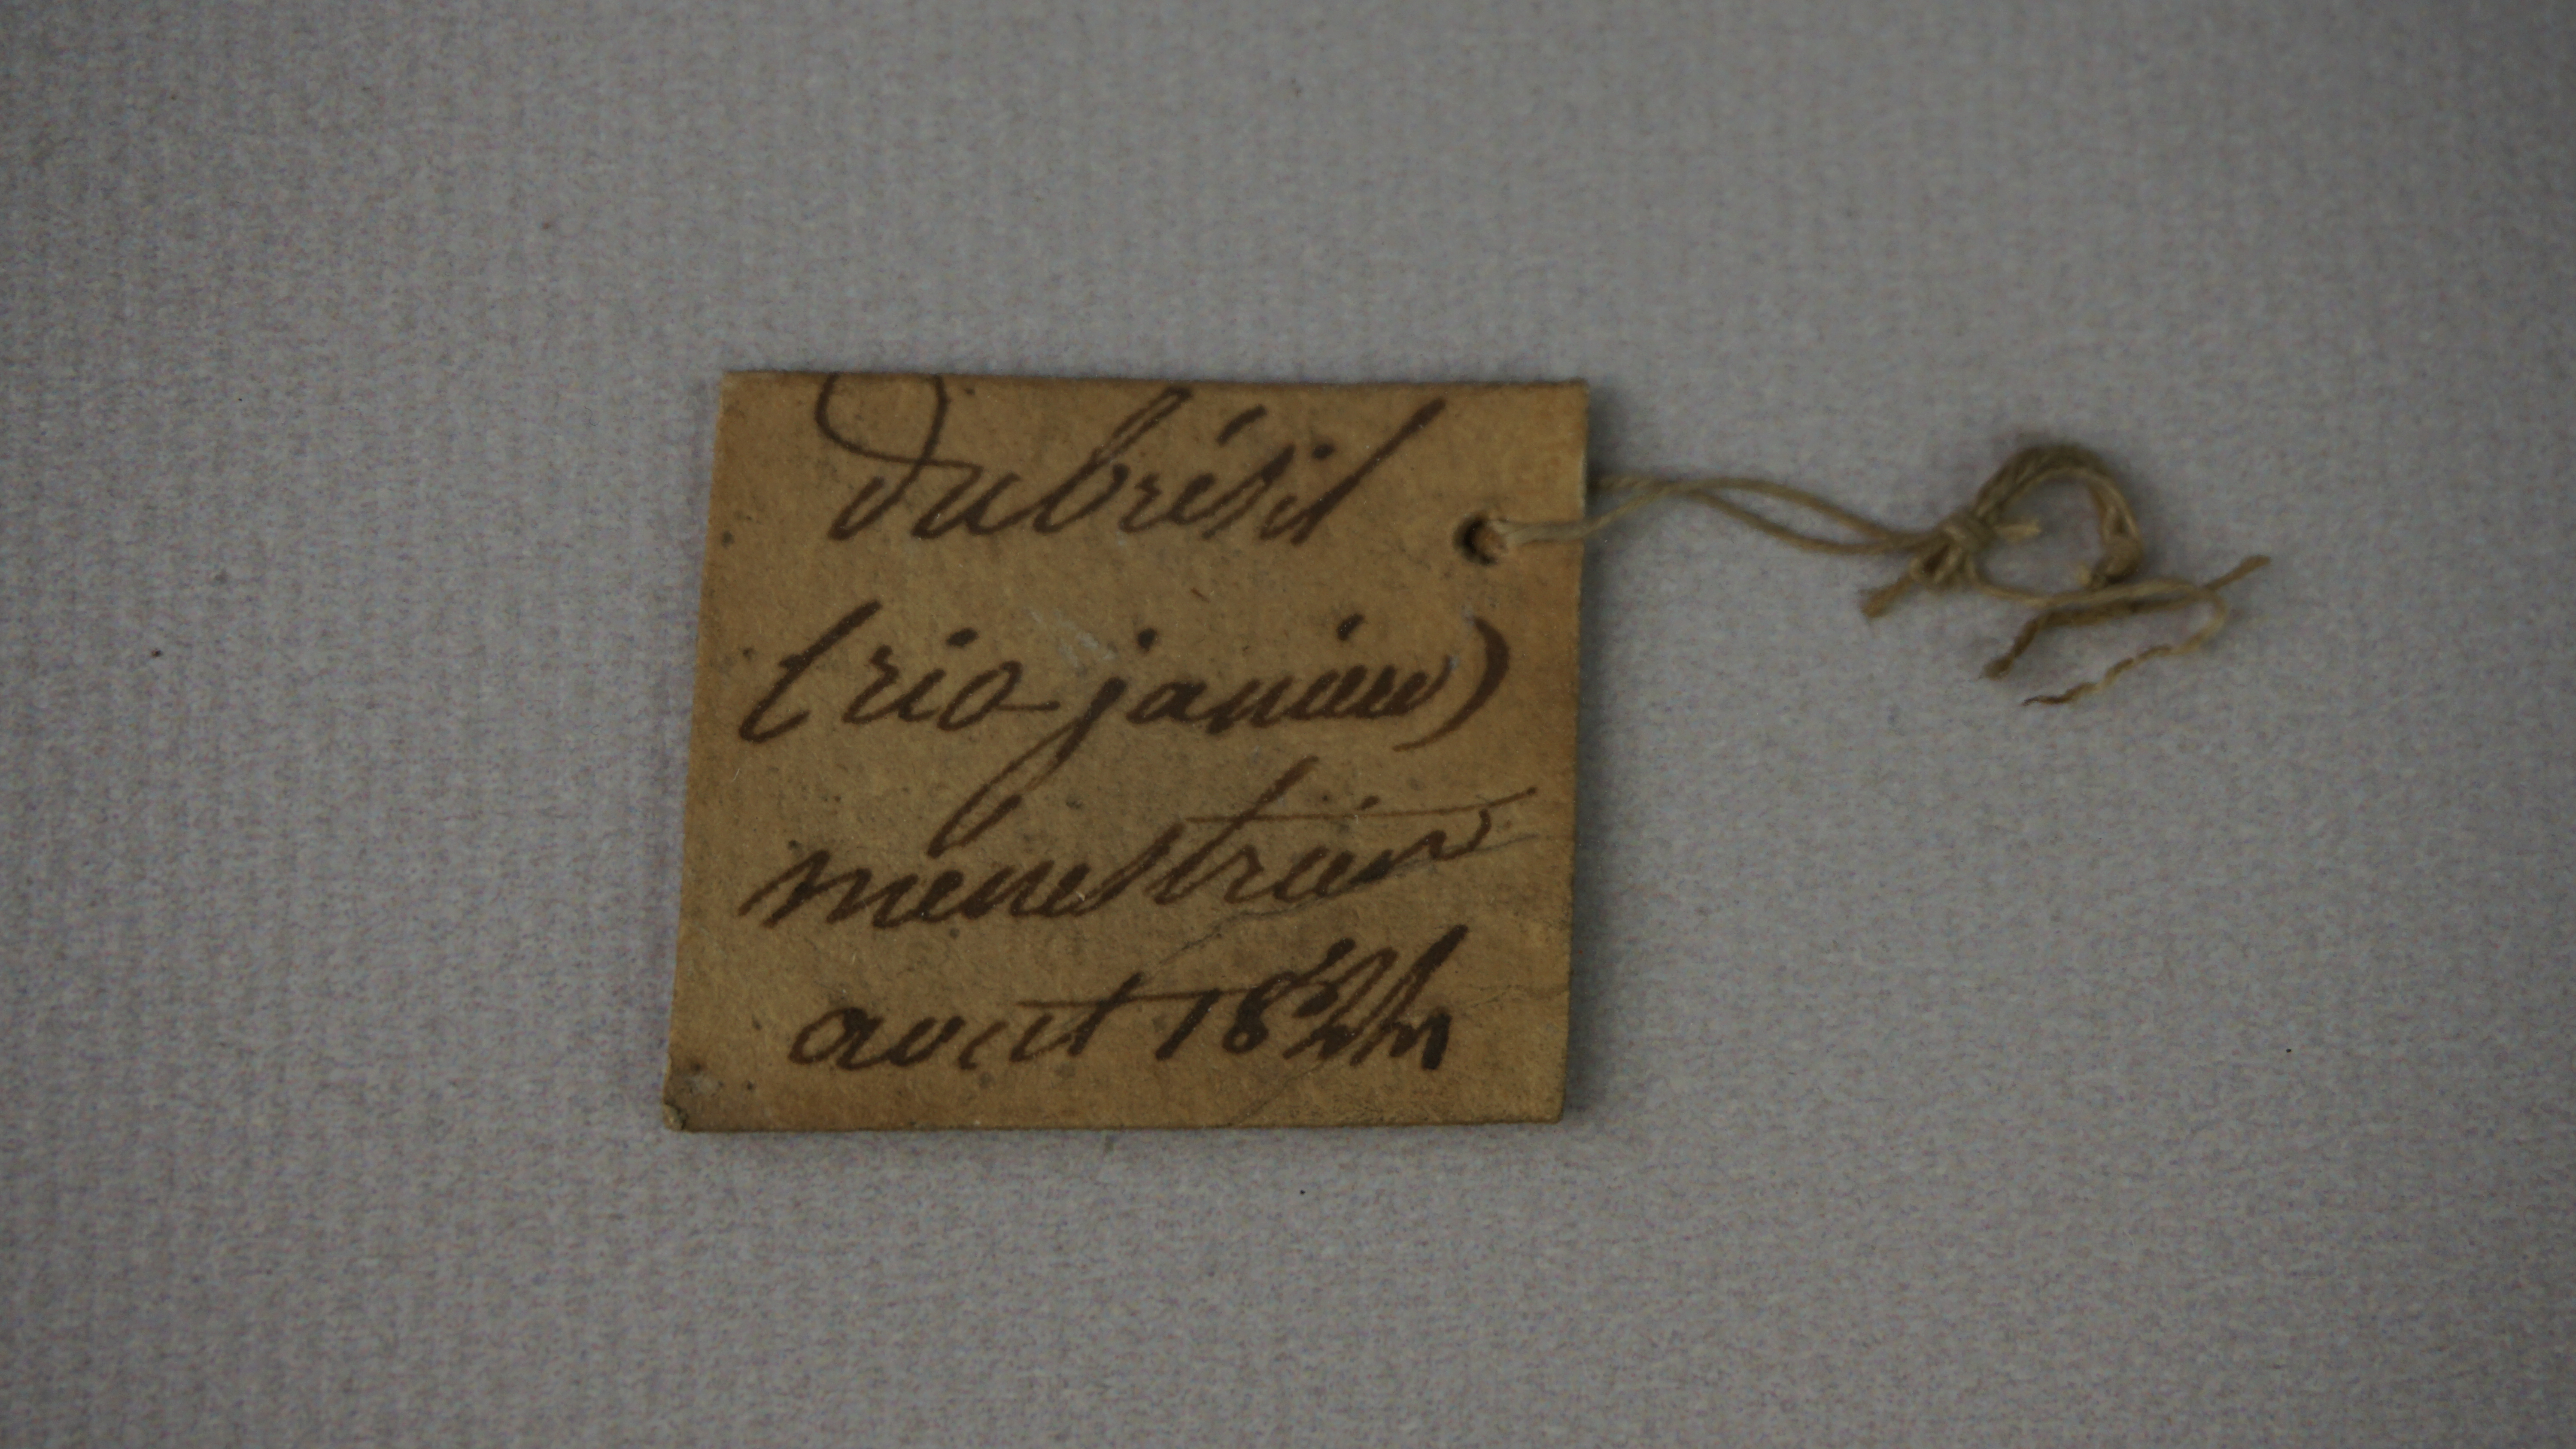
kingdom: Animalia
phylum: Chordata
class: Aves
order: Psittaciformes
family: Psittacidae
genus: Pyrrhura
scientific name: Pyrrhura leucotis
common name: White-eared parakeet
